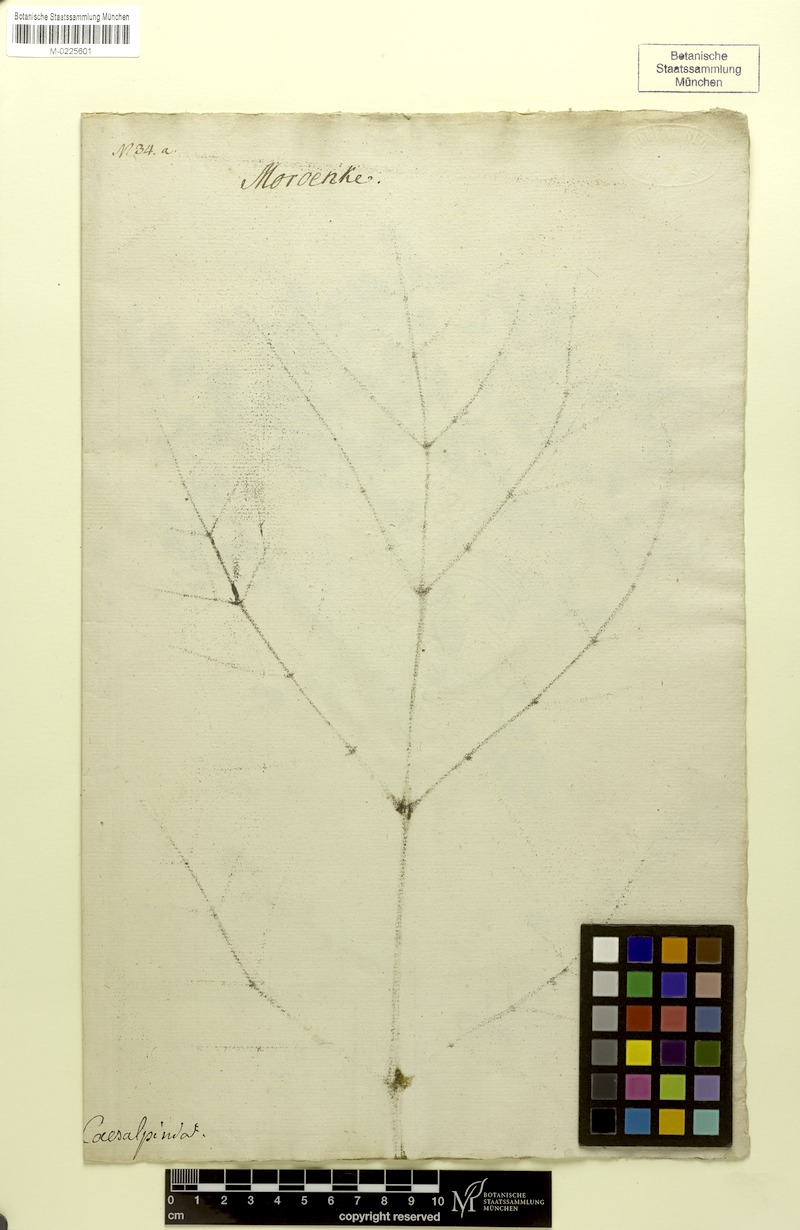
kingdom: Plantae
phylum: Tracheophyta
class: Magnoliopsida
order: Brassicales
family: Moringaceae
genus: Moringa
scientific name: Moringa oleifera
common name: Horseradish-tree
